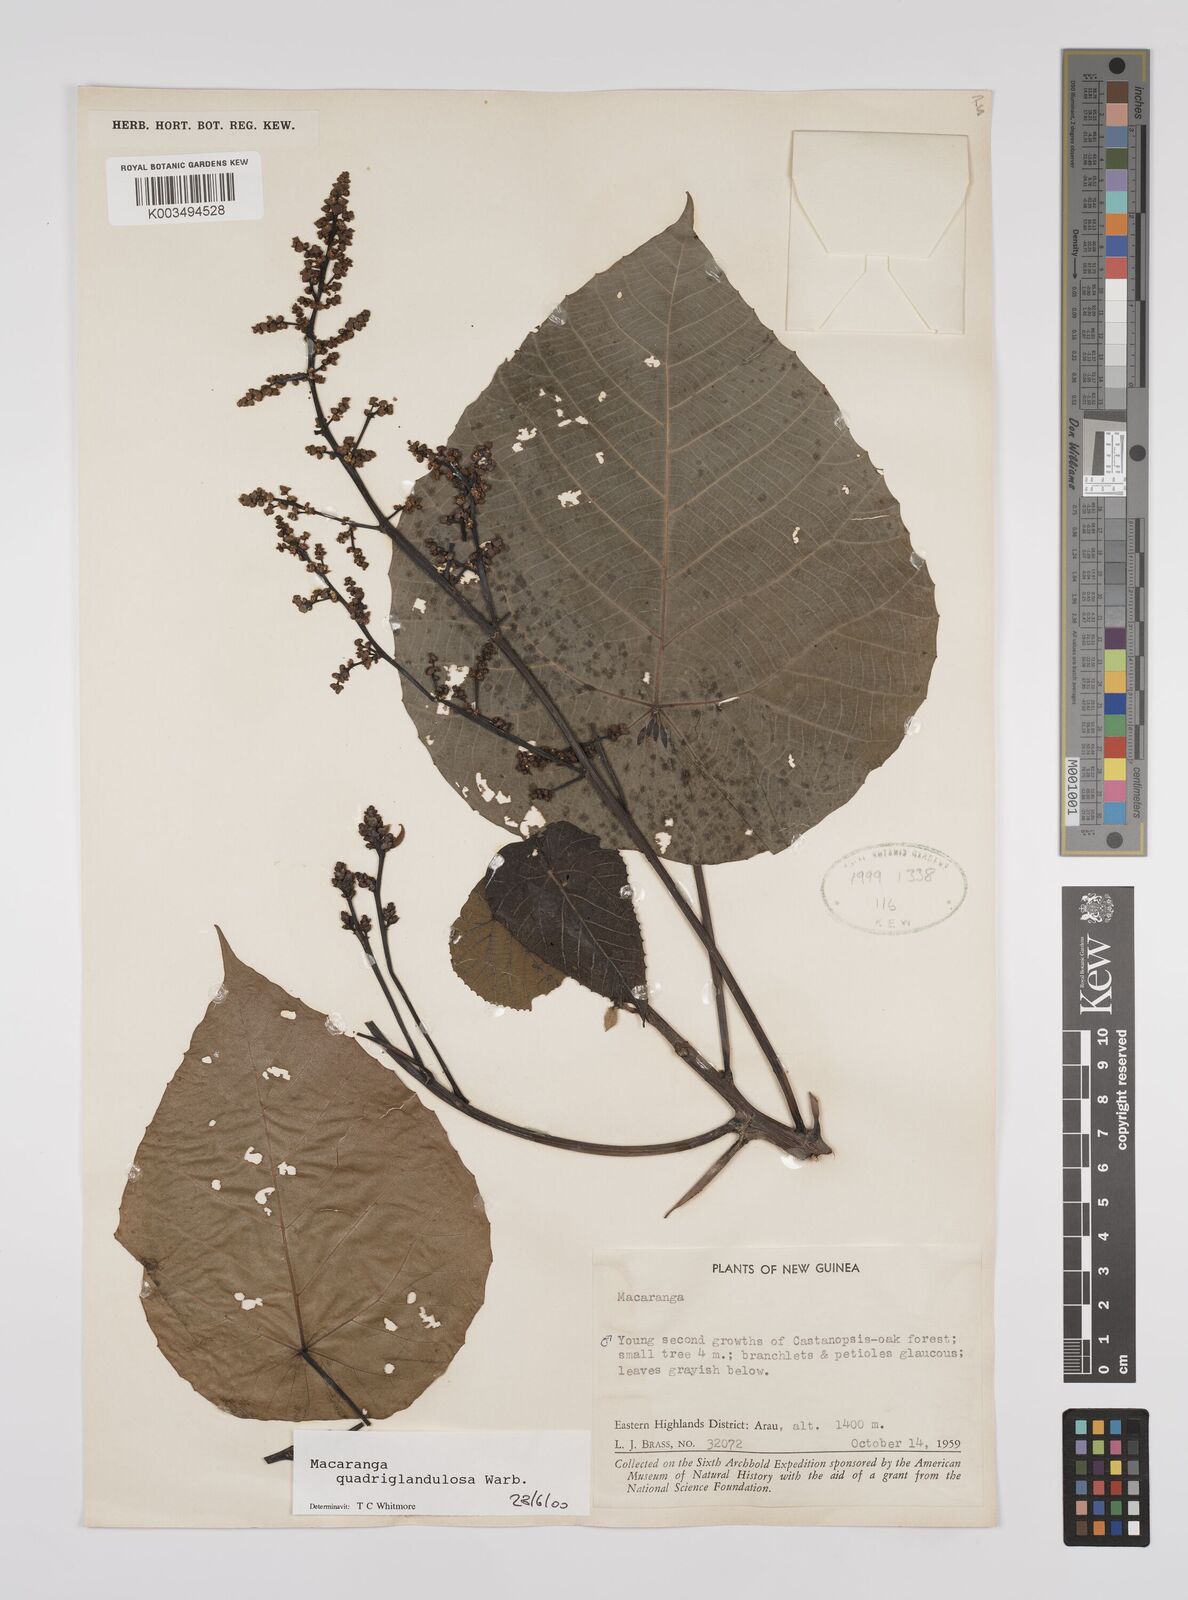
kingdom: Plantae
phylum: Tracheophyta
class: Magnoliopsida
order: Malpighiales
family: Euphorbiaceae
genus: Macaranga
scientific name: Macaranga quadriglandulosa
